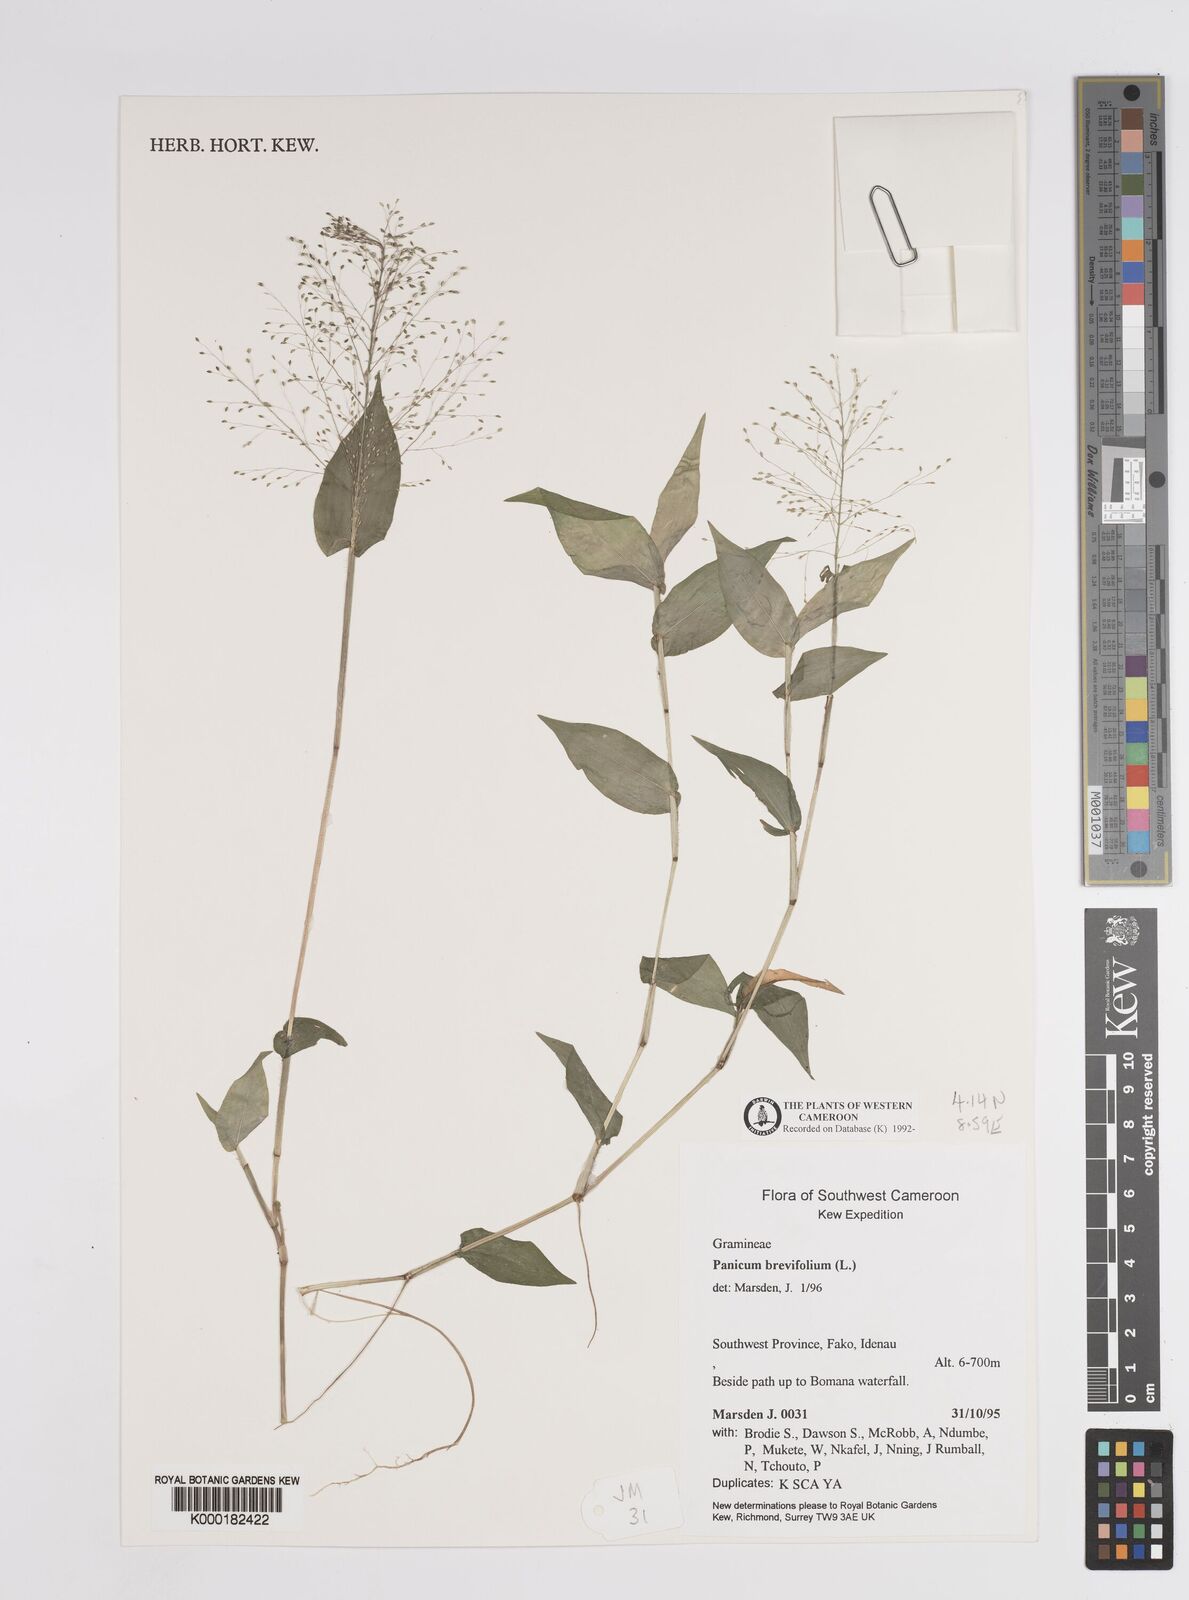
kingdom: Plantae
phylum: Tracheophyta
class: Liliopsida
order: Poales
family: Poaceae
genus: Panicum
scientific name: Panicum brevifolium
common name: Shortleaf panic grass
